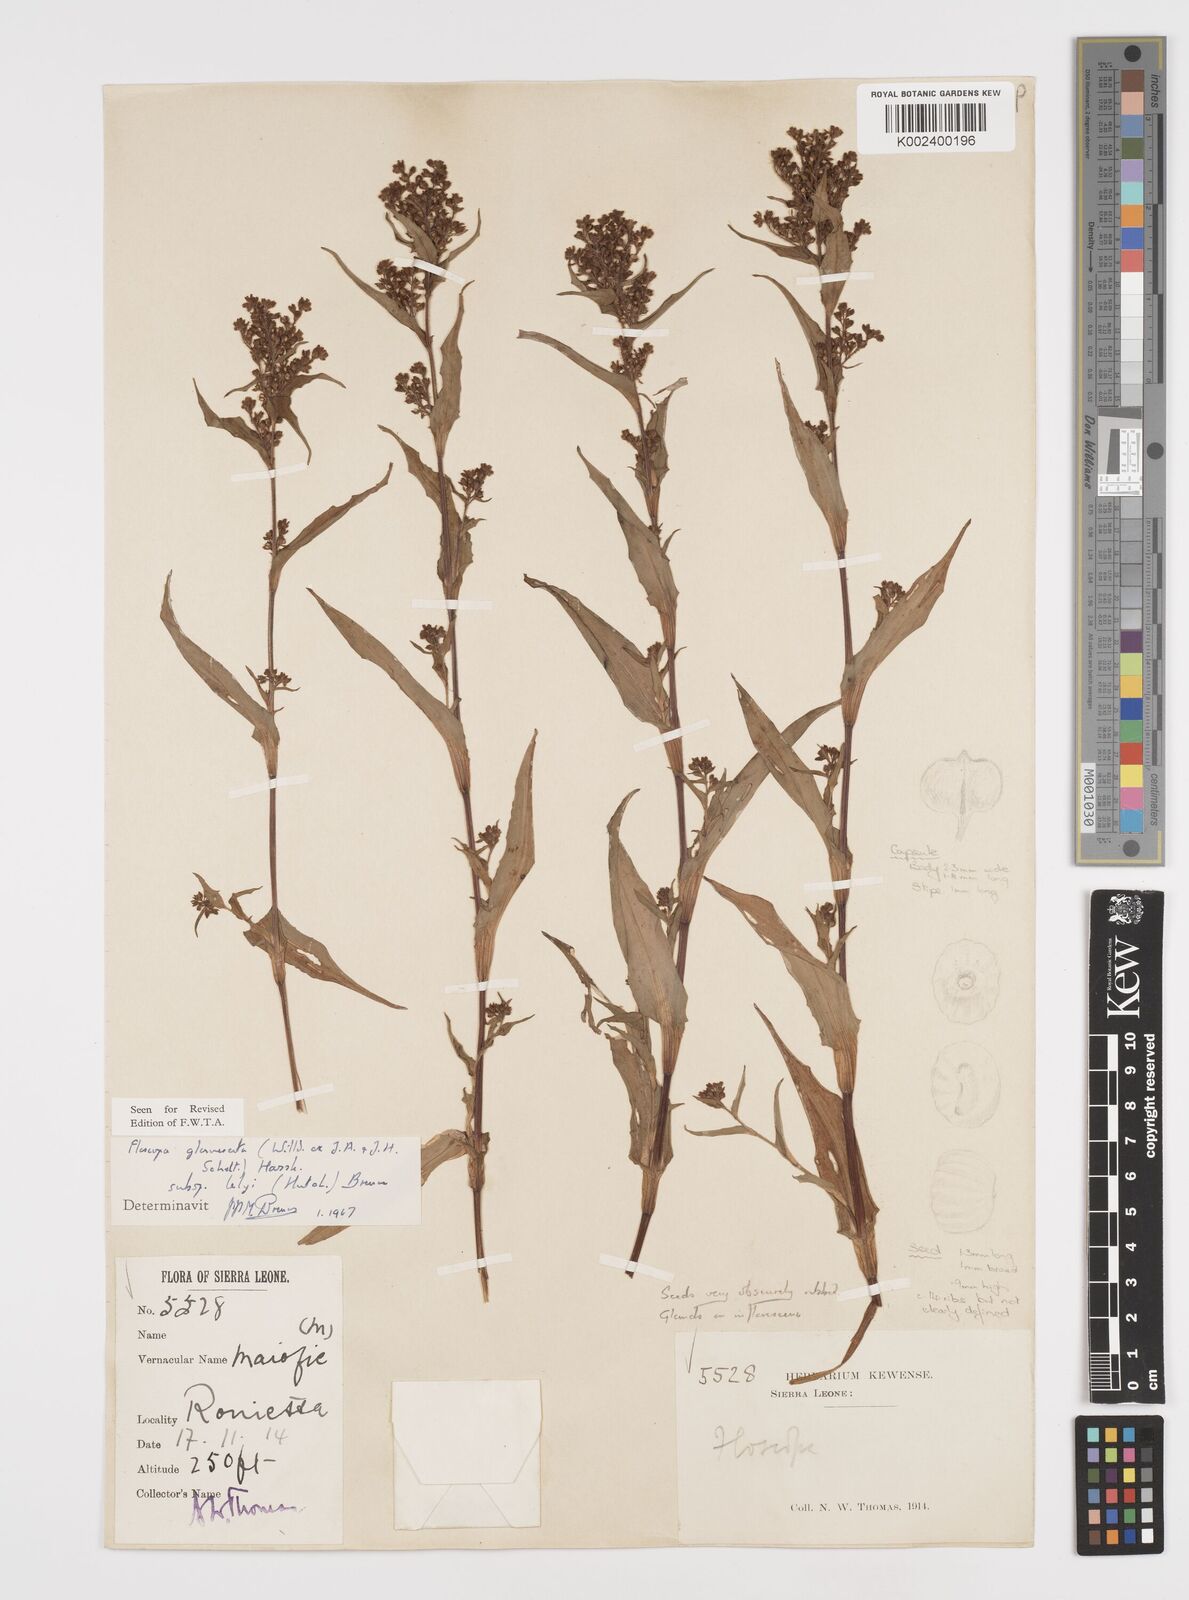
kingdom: Plantae
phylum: Tracheophyta
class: Liliopsida
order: Commelinales
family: Commelinaceae
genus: Floscopa
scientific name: Floscopa glomerata
